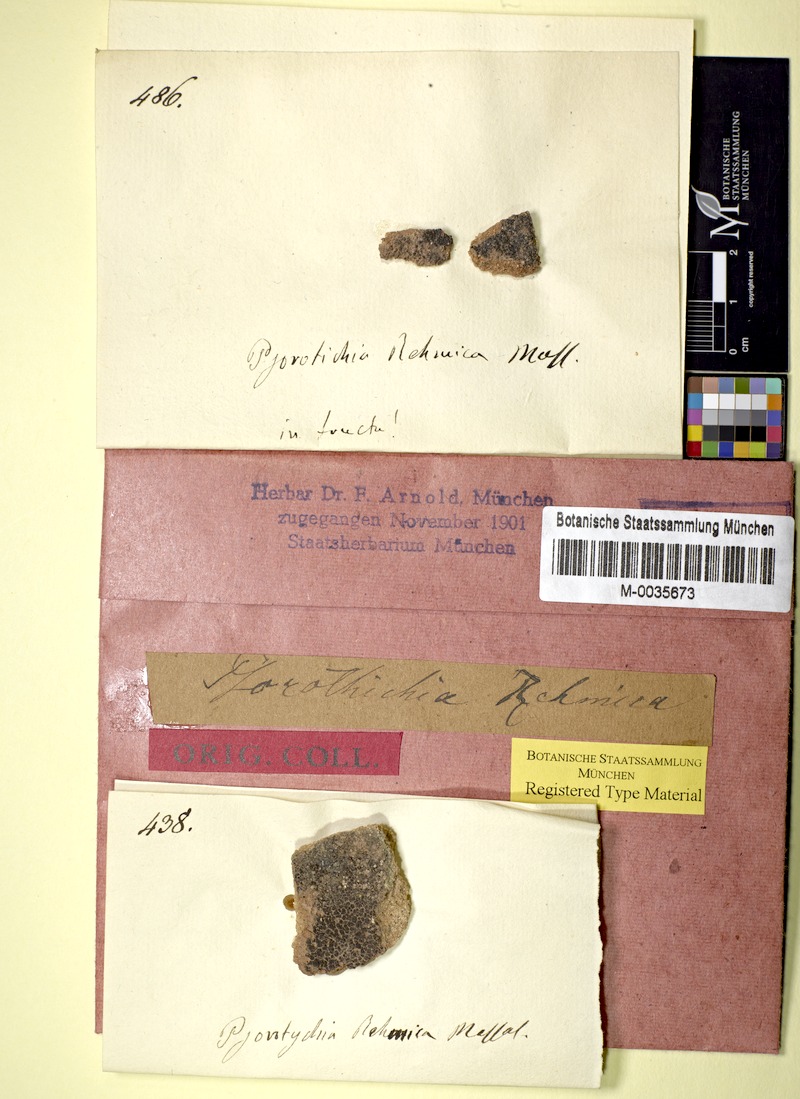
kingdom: Fungi
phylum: Ascomycota
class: Lichinomycetes
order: Lichinales
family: Lichinaceae
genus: Porocyphus
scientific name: Porocyphus rehmicus
